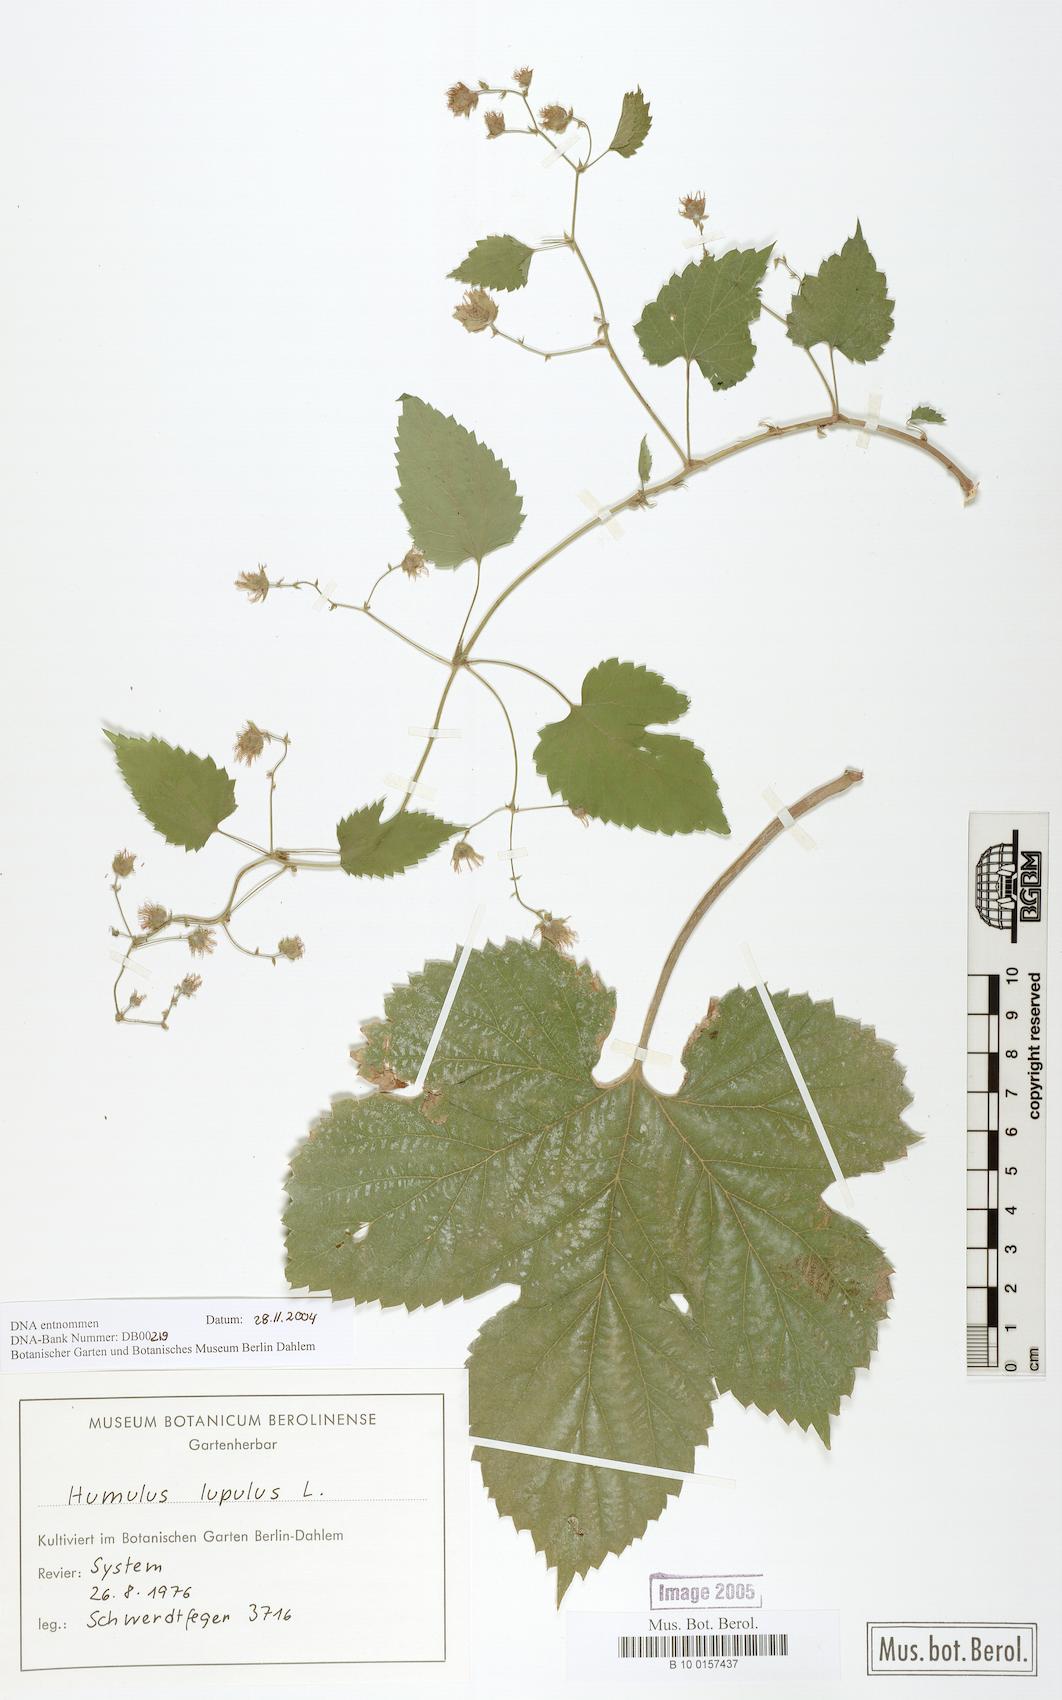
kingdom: Plantae
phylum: Tracheophyta
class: Magnoliopsida
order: Rosales
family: Cannabaceae
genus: Humulus
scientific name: Humulus lupulus
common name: Hop
